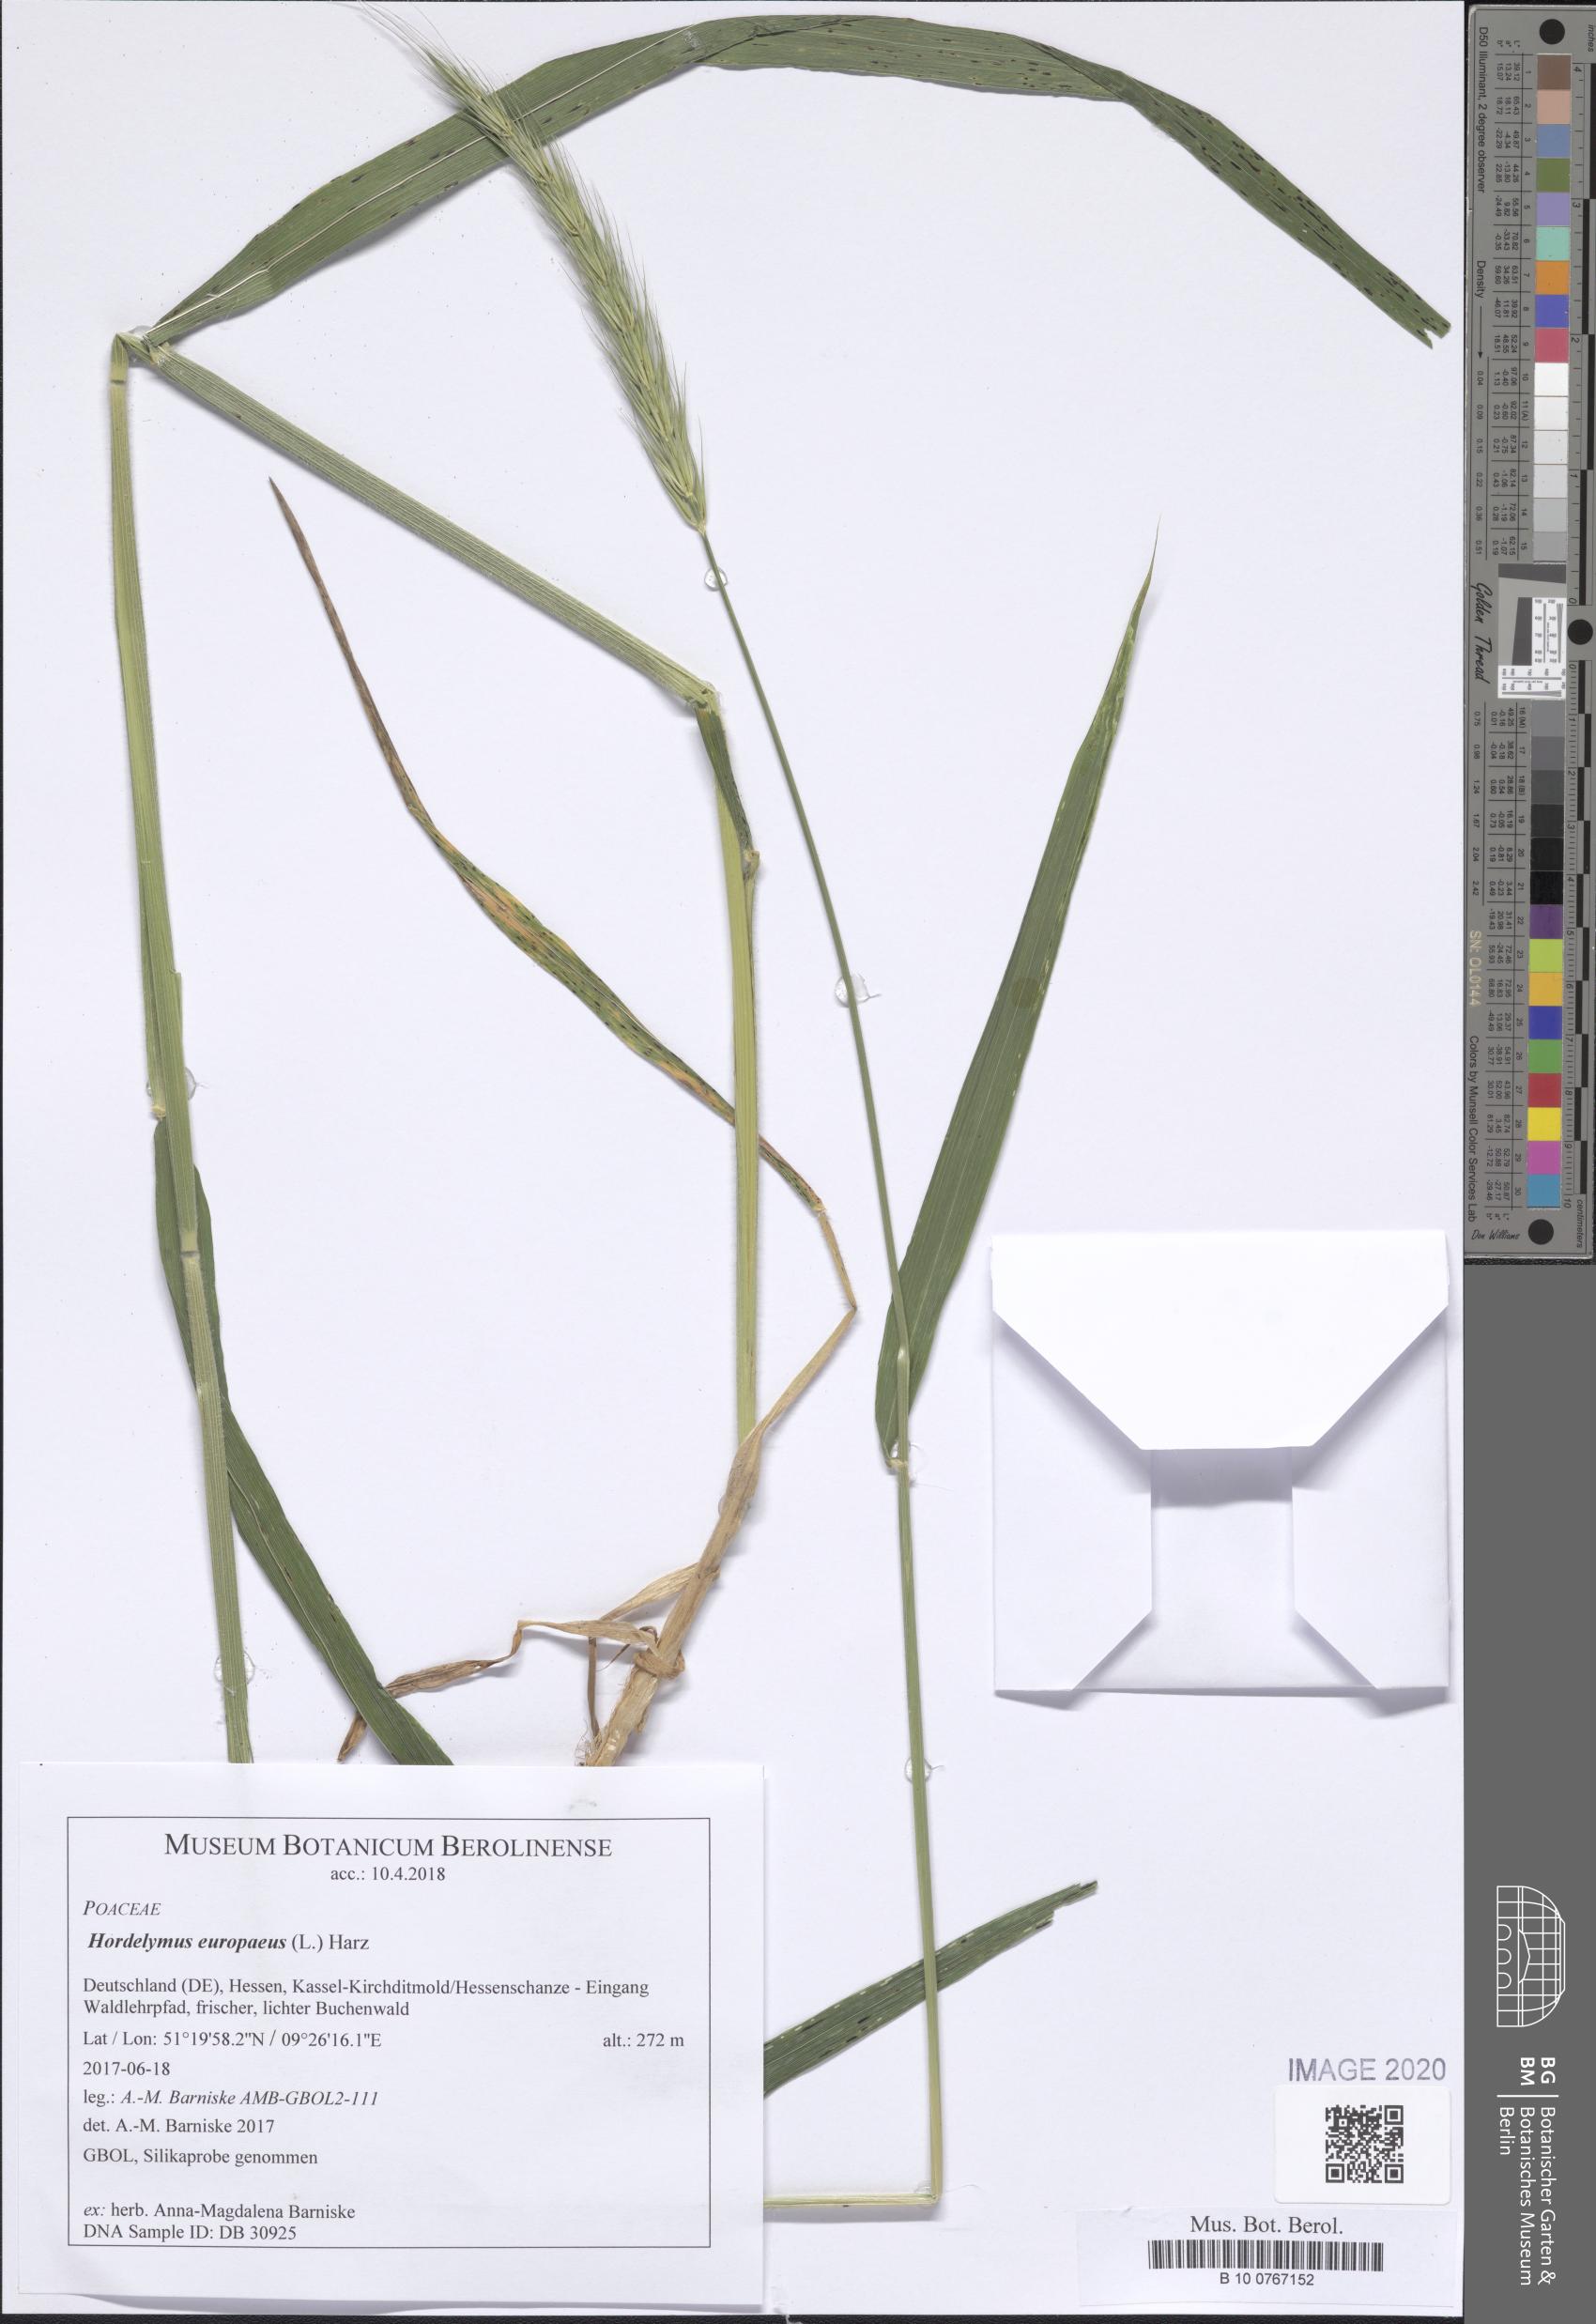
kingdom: Plantae
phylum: Tracheophyta
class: Liliopsida
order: Poales
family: Poaceae
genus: Hordelymus
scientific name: Hordelymus europaeus
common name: Wood-barley
